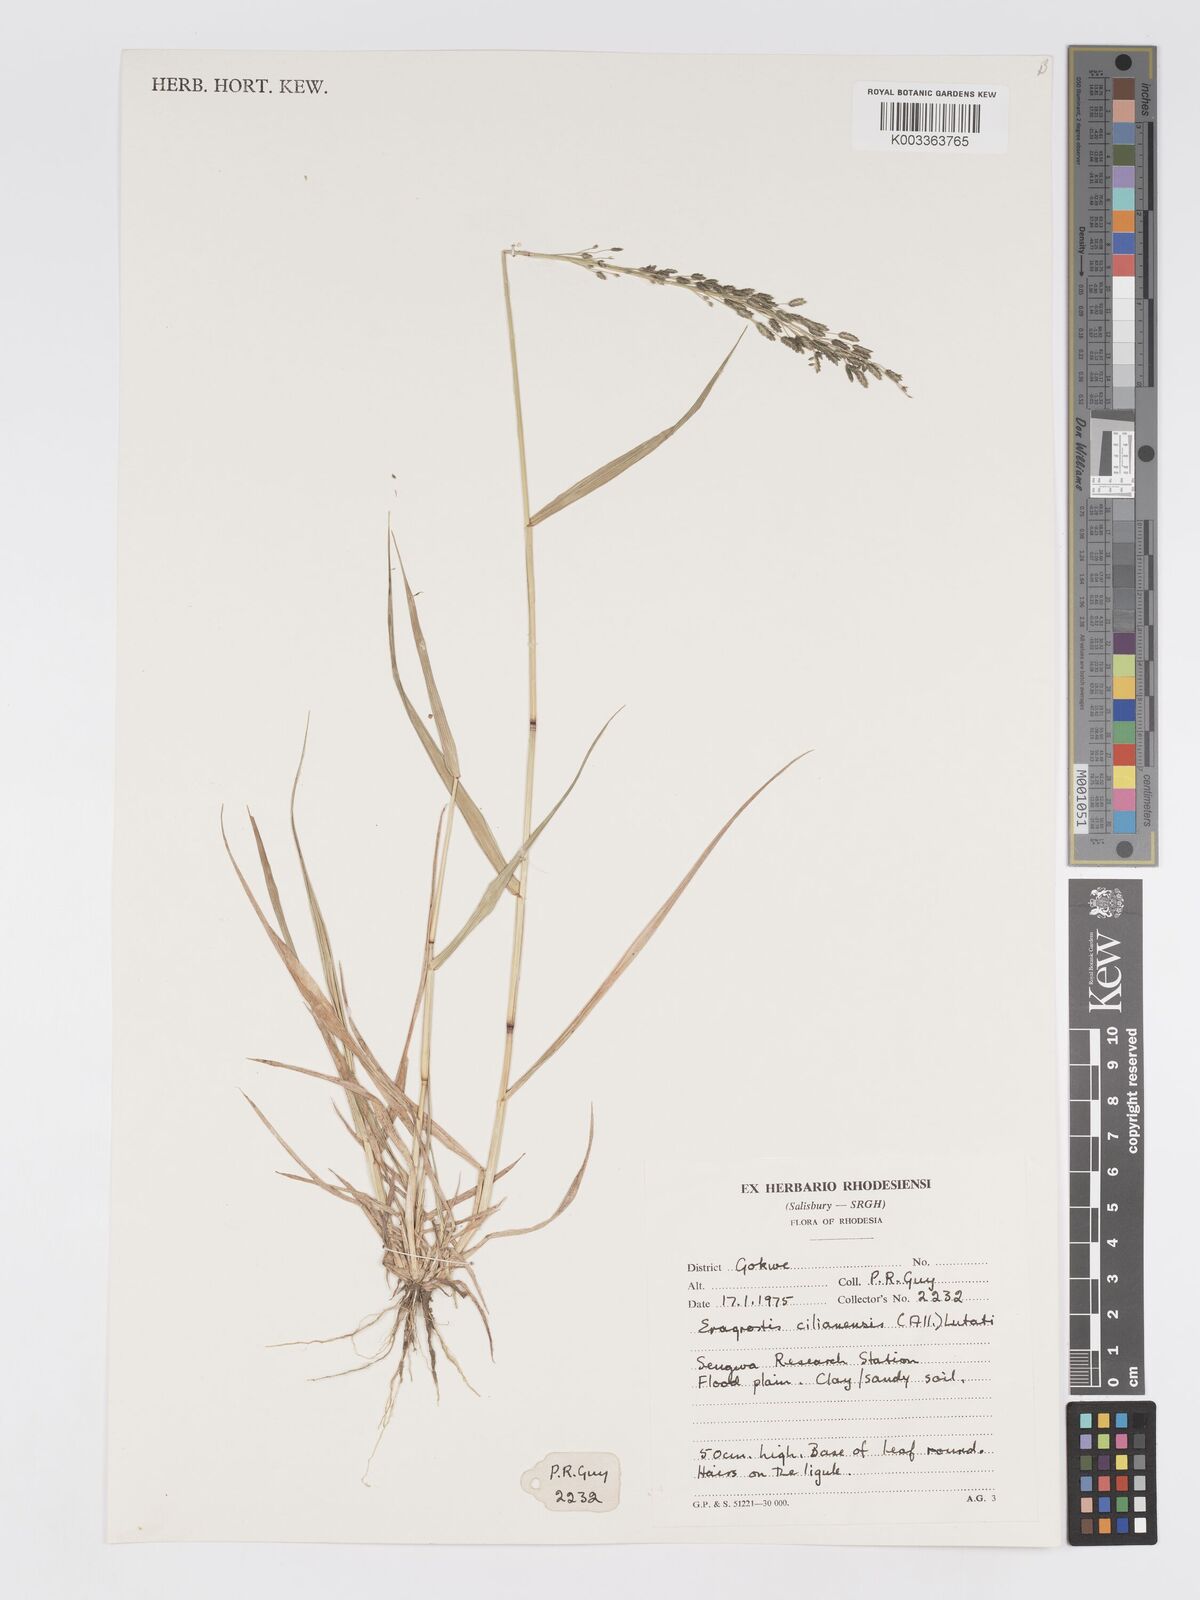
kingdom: Plantae
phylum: Tracheophyta
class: Liliopsida
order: Poales
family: Poaceae
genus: Eragrostis
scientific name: Eragrostis cilianensis
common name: Stinkgrass
